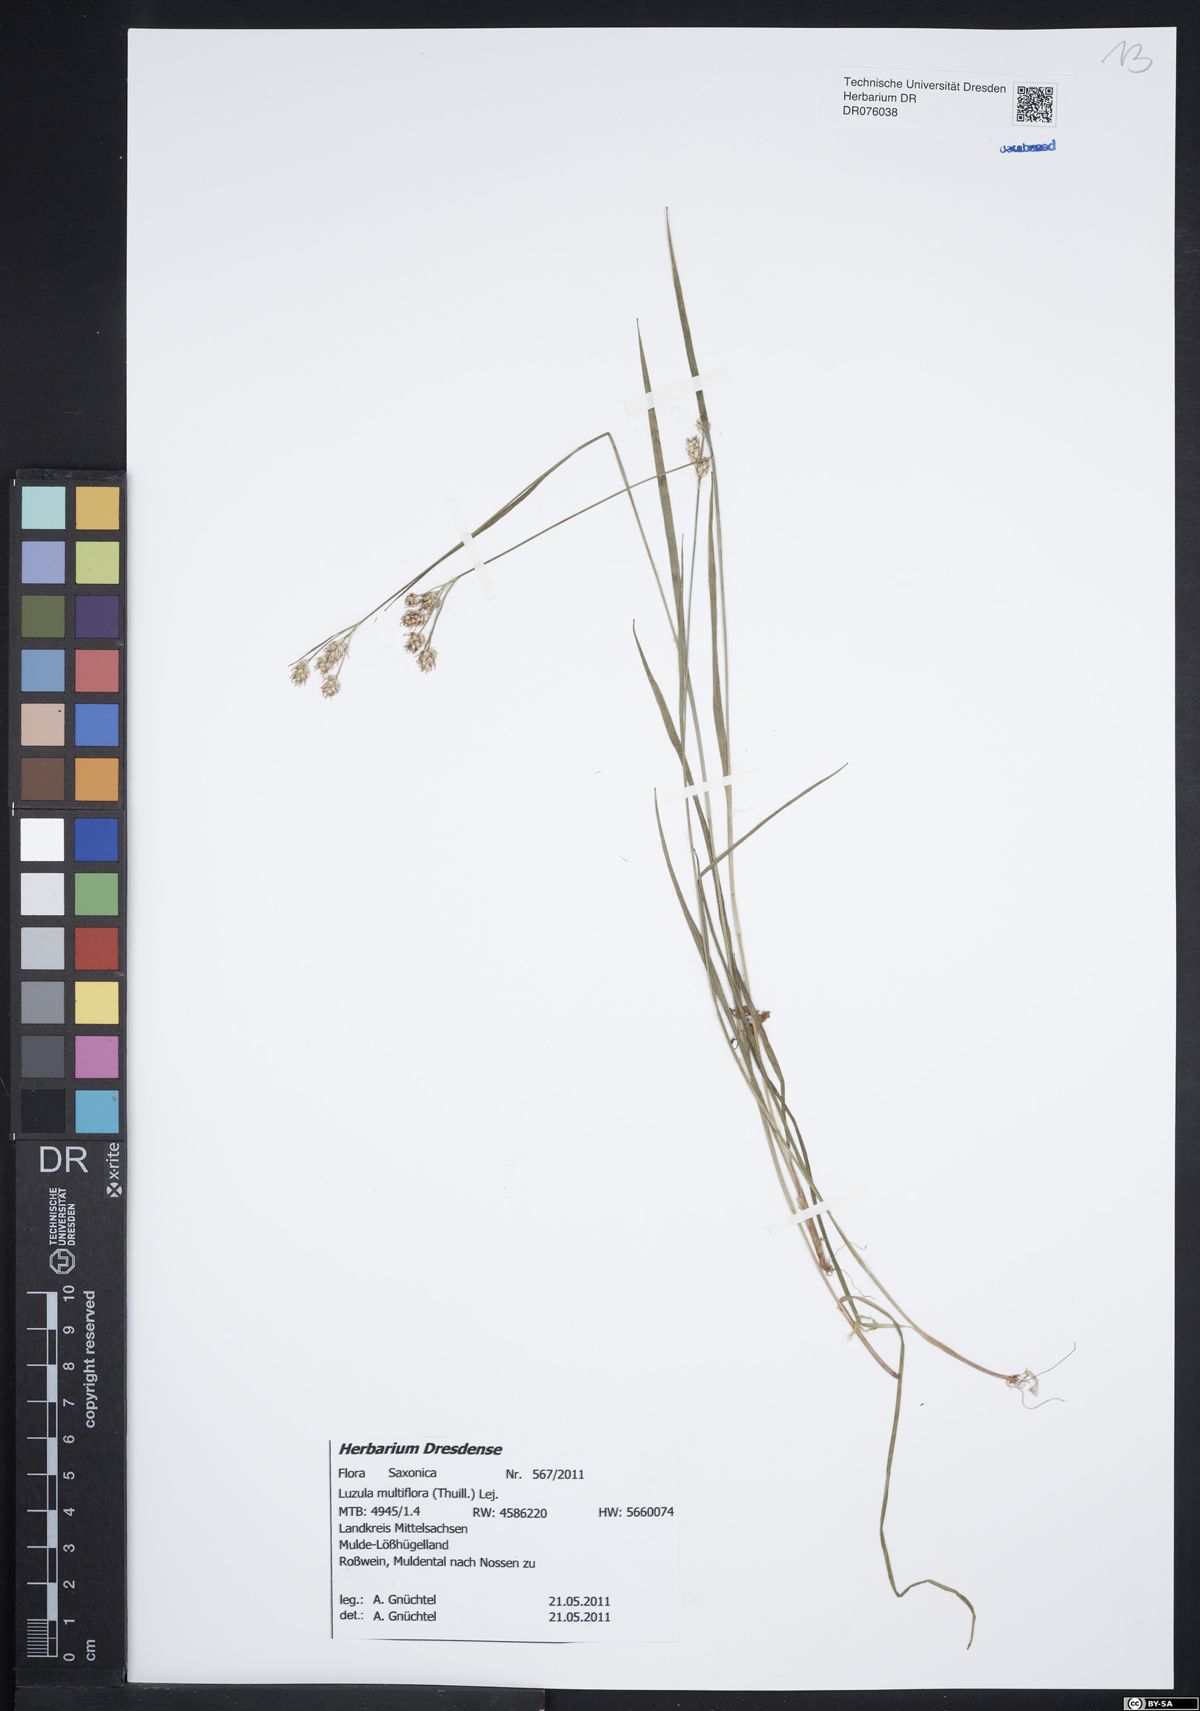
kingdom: Plantae
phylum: Tracheophyta
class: Liliopsida
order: Poales
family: Juncaceae
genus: Luzula
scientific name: Luzula multiflora
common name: Heath wood-rush
